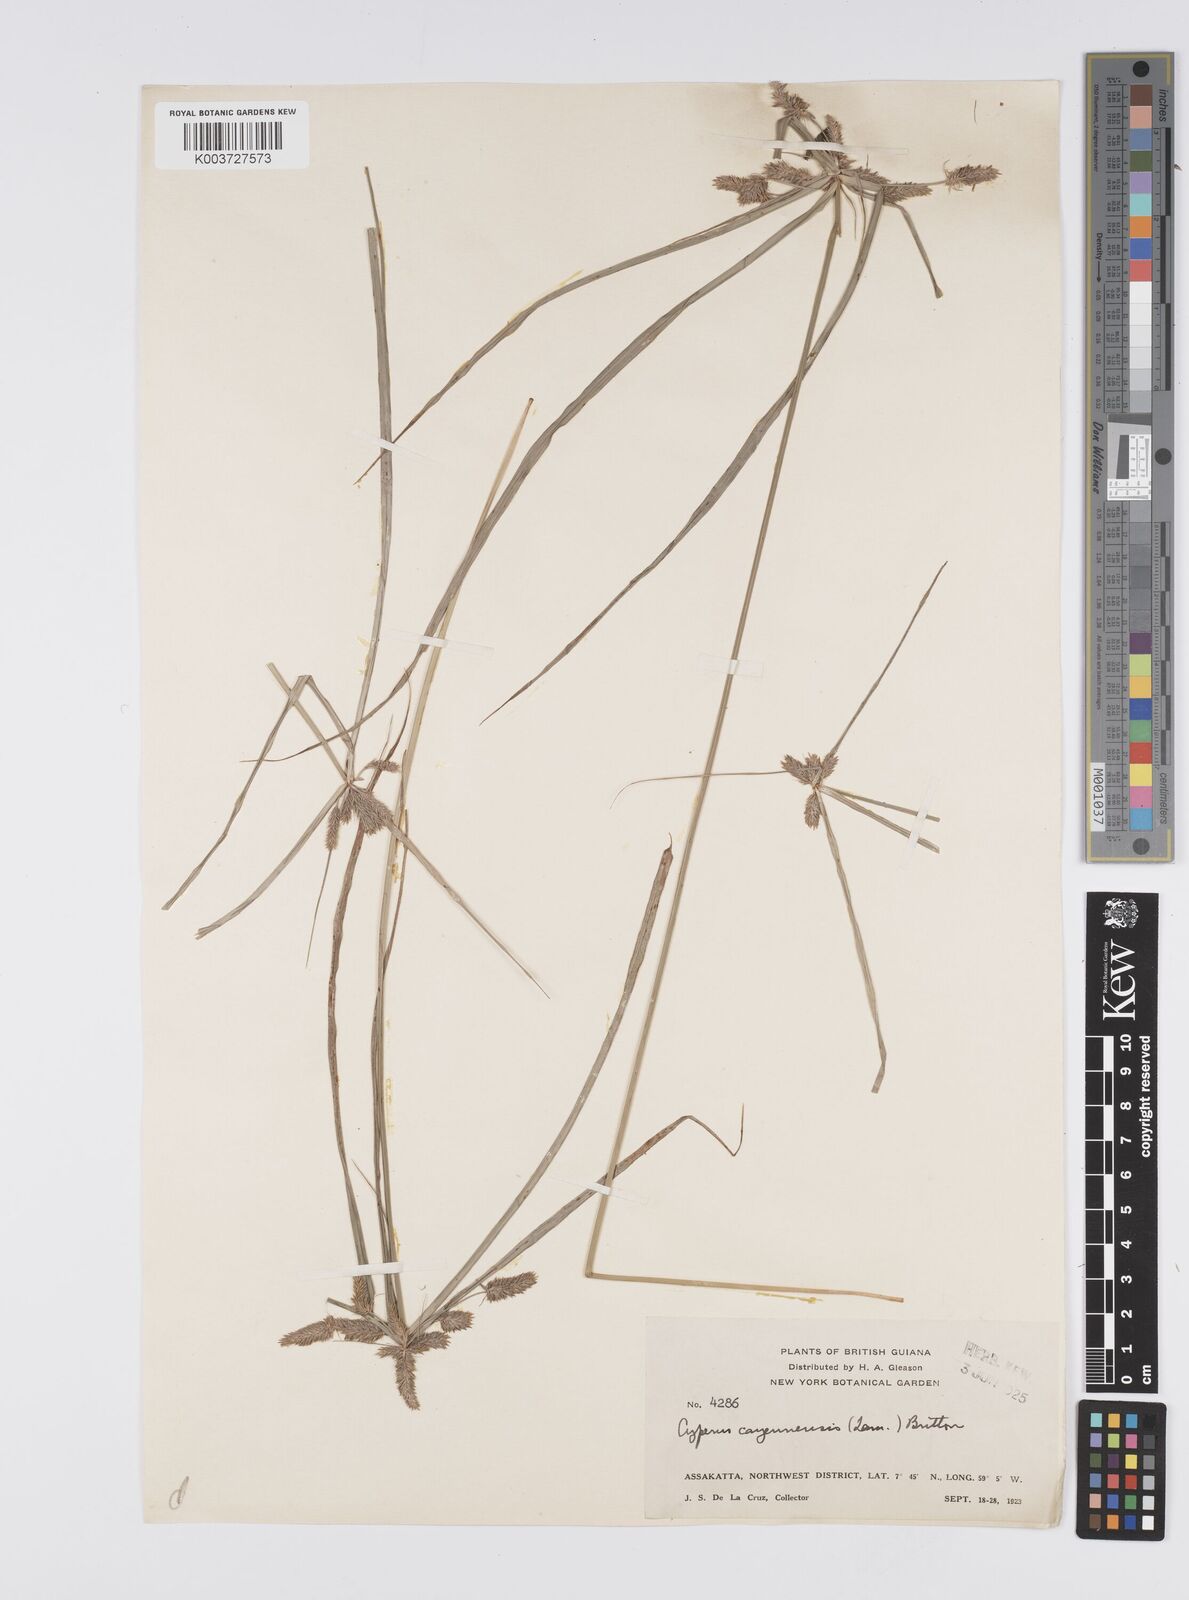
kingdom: Plantae
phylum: Tracheophyta
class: Liliopsida
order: Poales
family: Cyperaceae
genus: Cyperus
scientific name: Cyperus aggregatus
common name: Inflatedscale flatsedge
